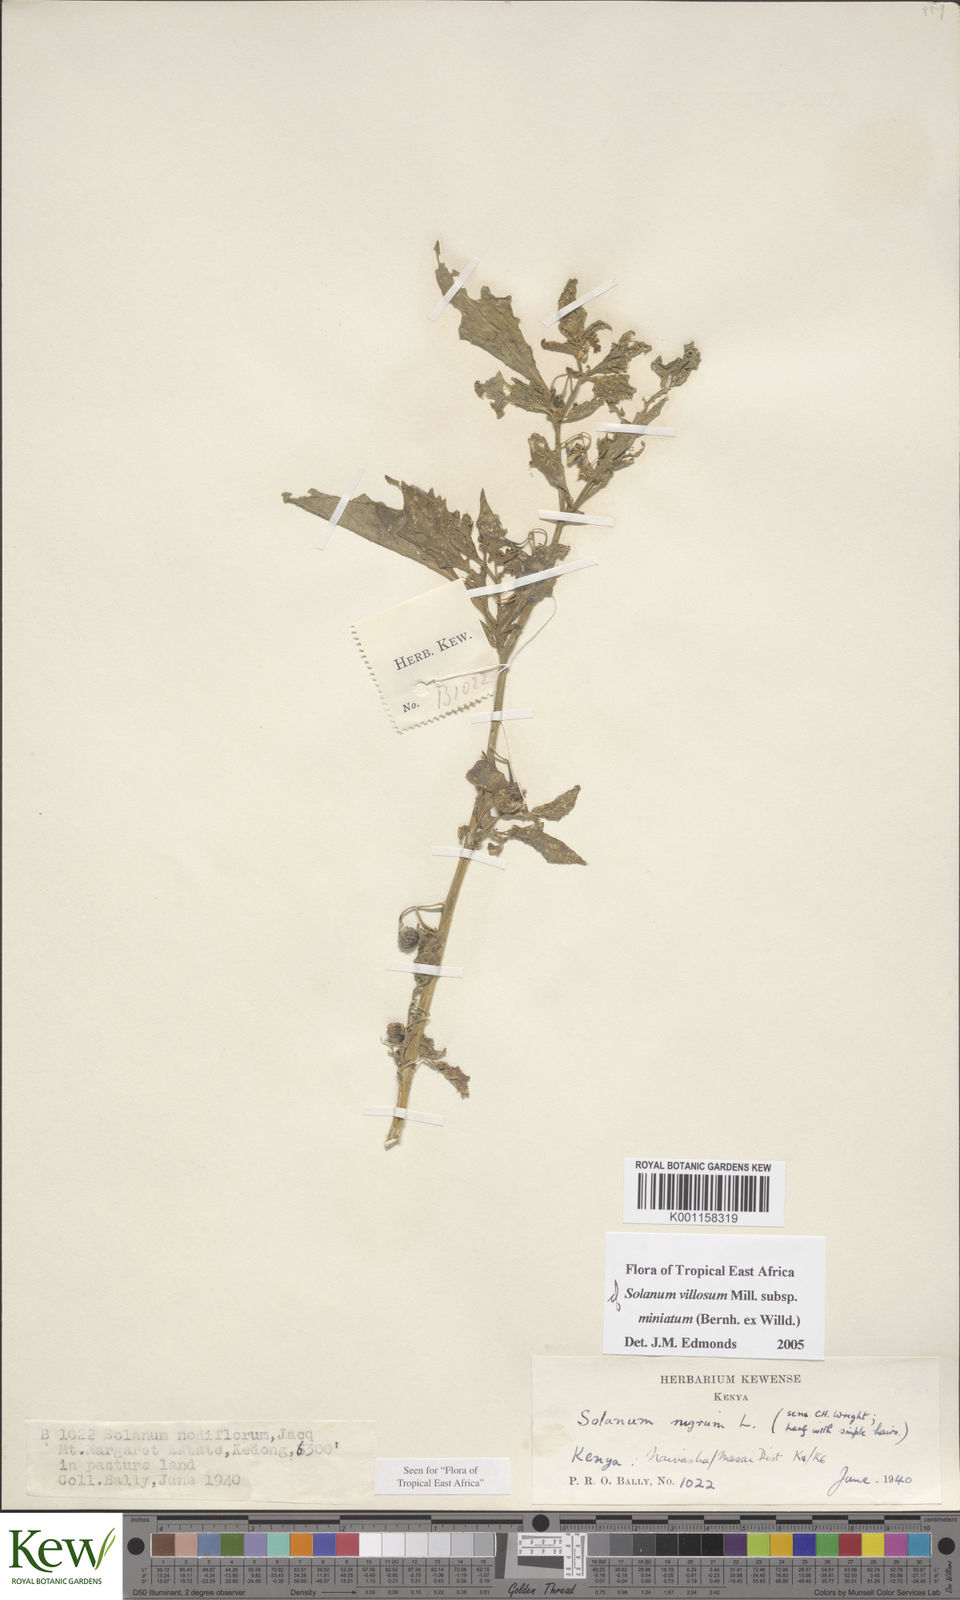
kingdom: Plantae
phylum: Tracheophyta
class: Magnoliopsida
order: Solanales
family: Solanaceae
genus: Solanum
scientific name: Solanum villosum
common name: Red nightshade
